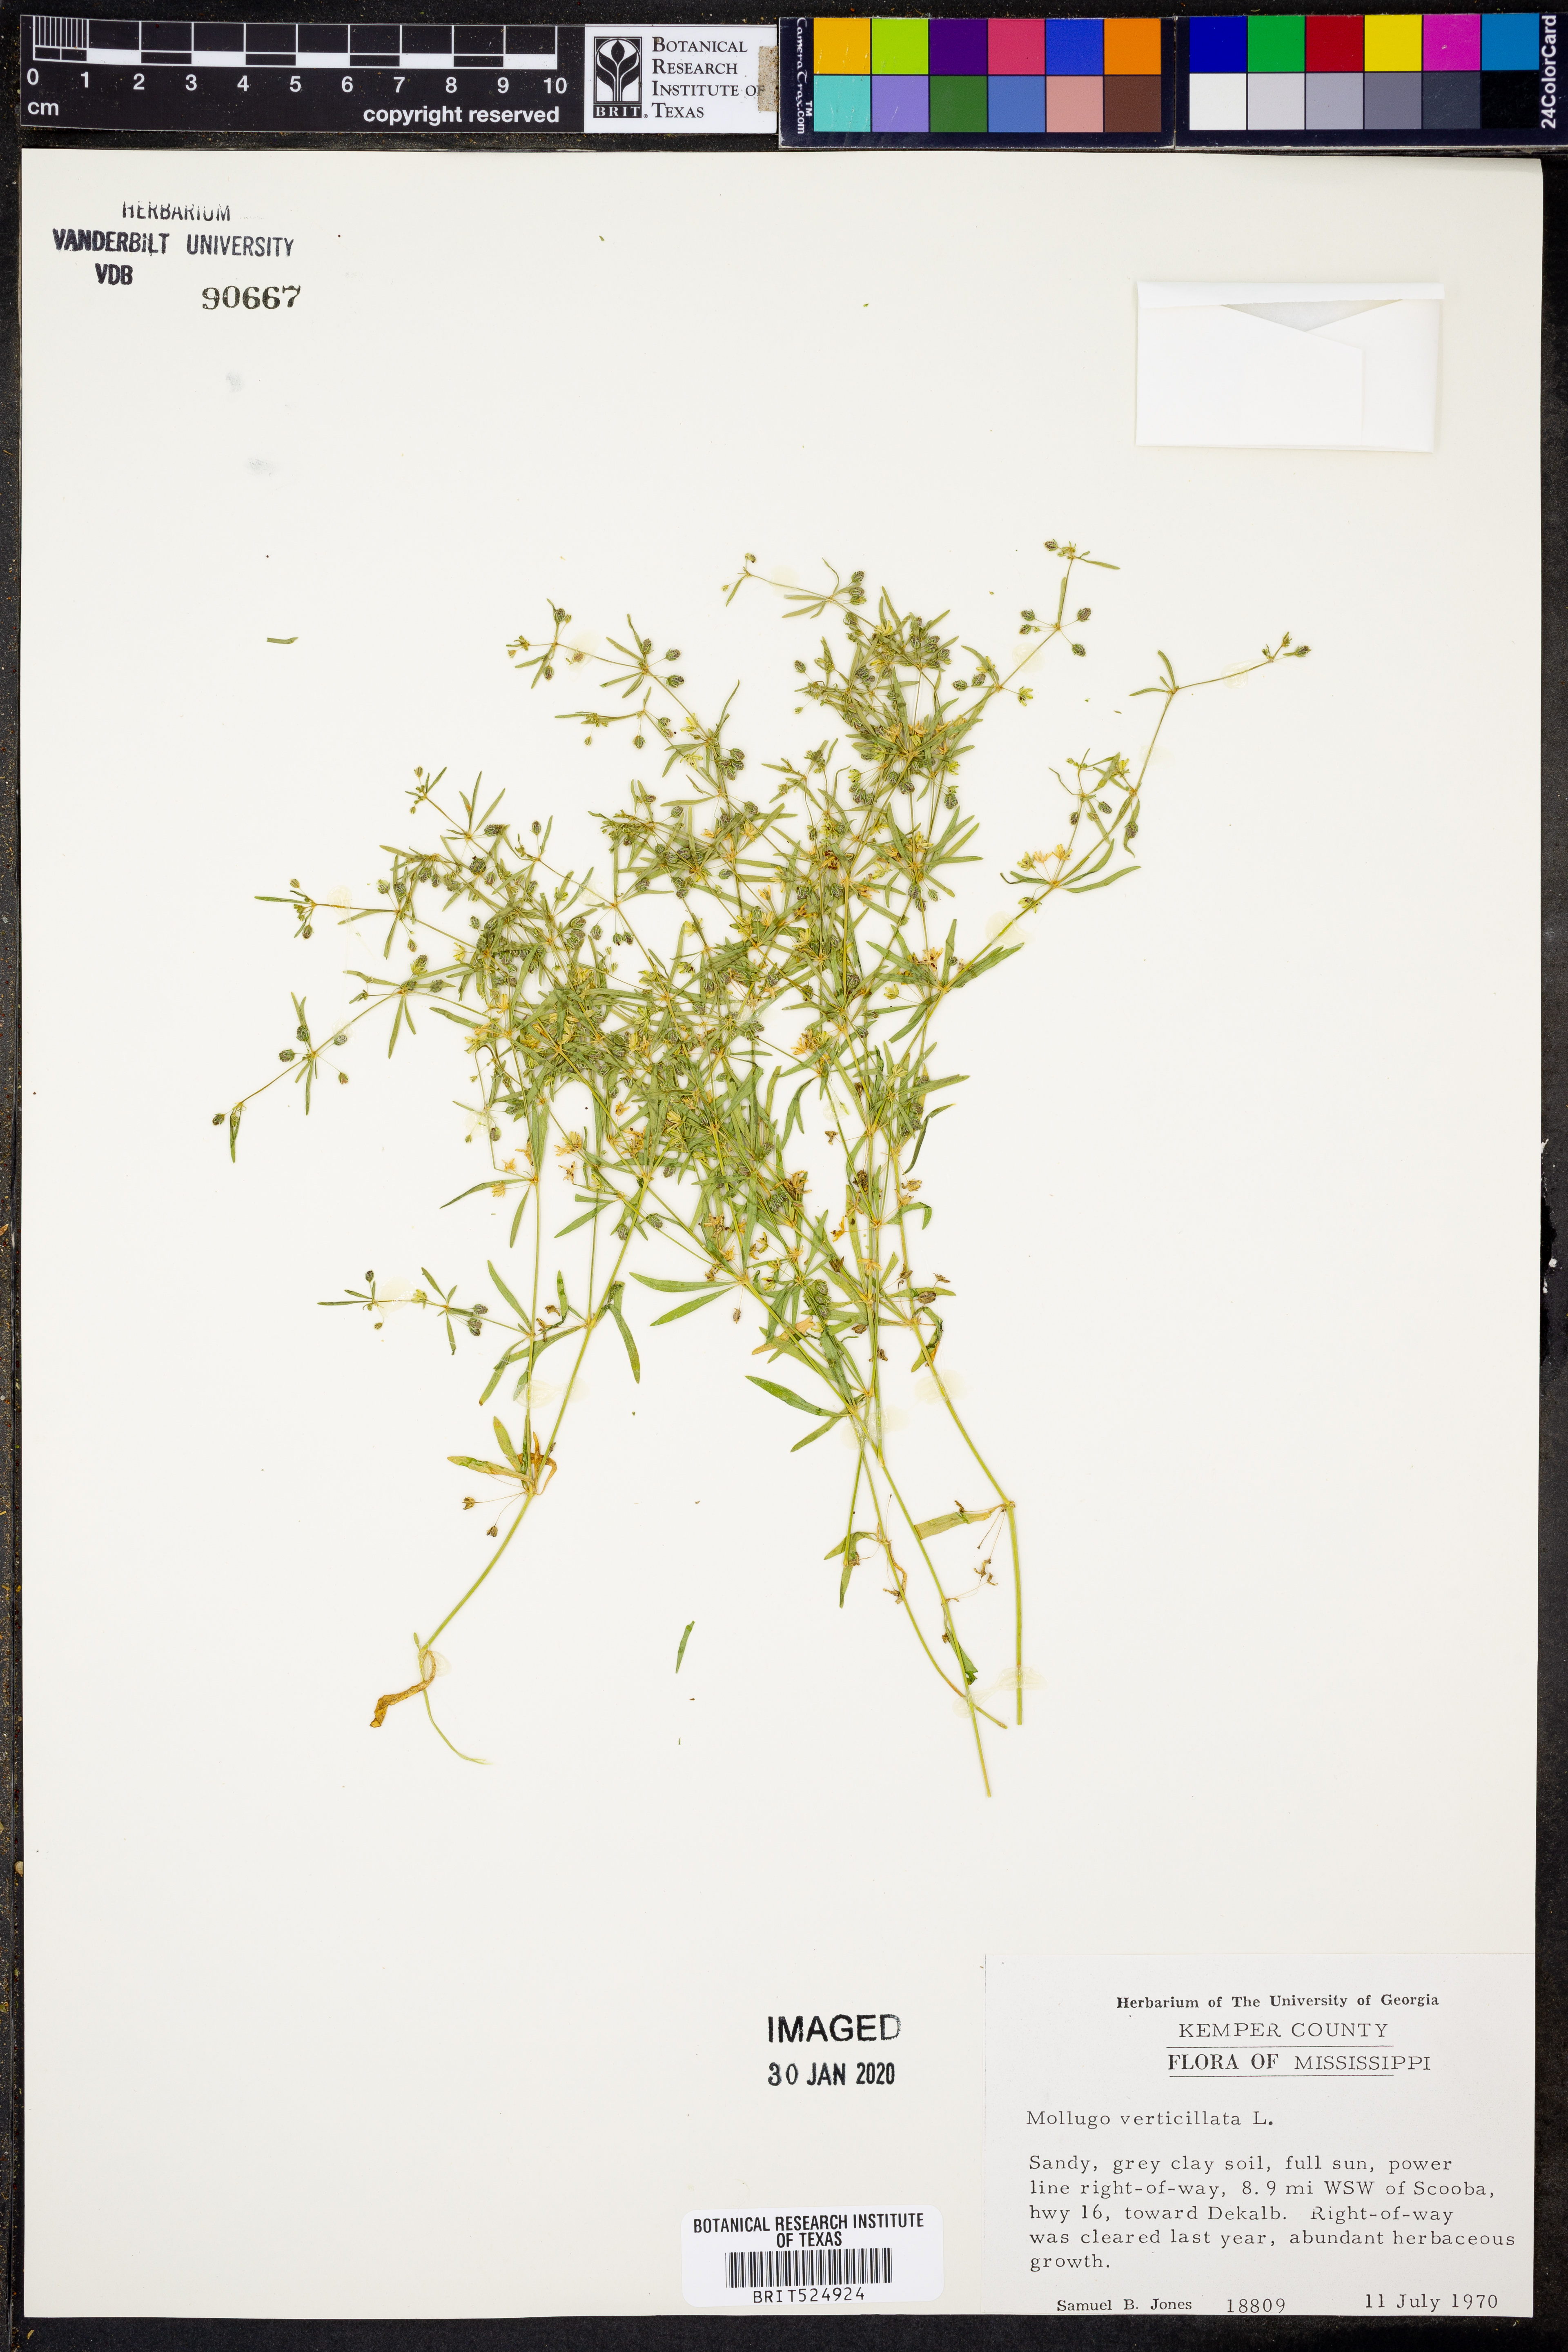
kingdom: Plantae
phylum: Tracheophyta
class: Magnoliopsida
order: Caryophyllales
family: Molluginaceae
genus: Mollugo
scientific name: Mollugo verticillata
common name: Green carpetweed
